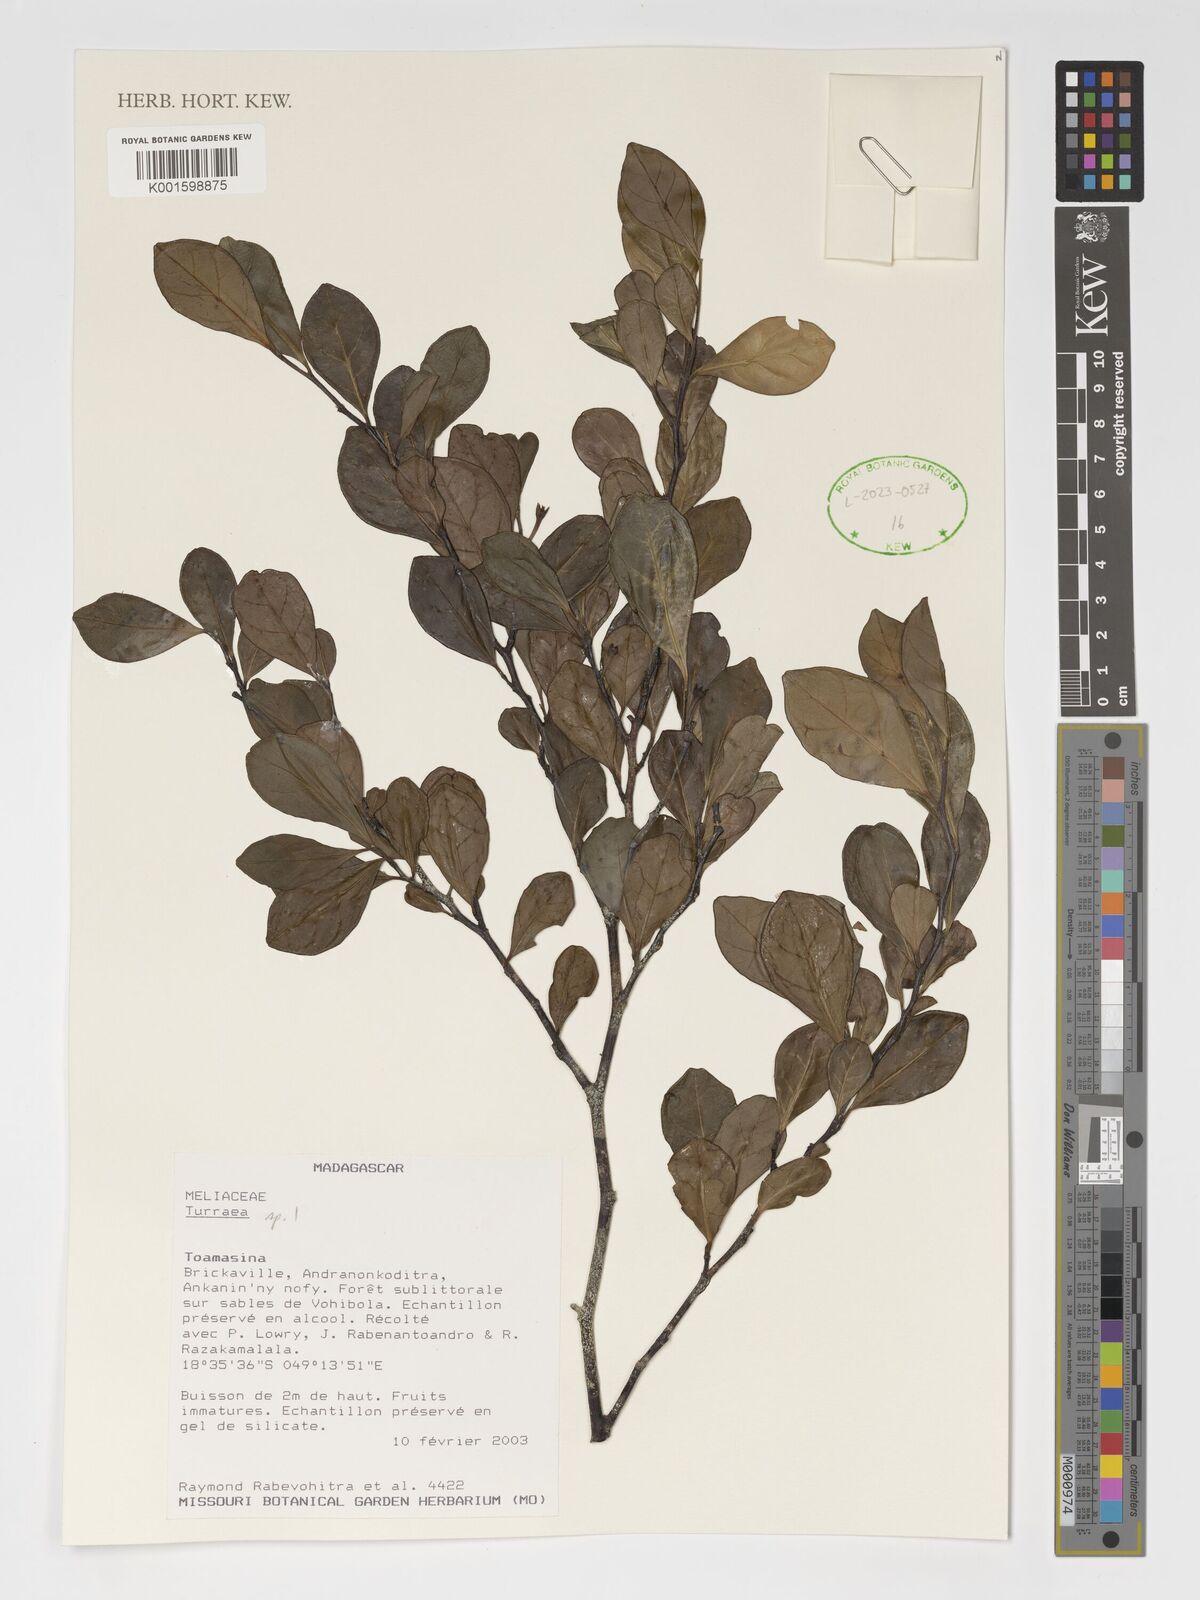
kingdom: Plantae
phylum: Tracheophyta
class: Magnoliopsida
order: Sapindales
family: Meliaceae
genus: Turraea
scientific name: Turraea
